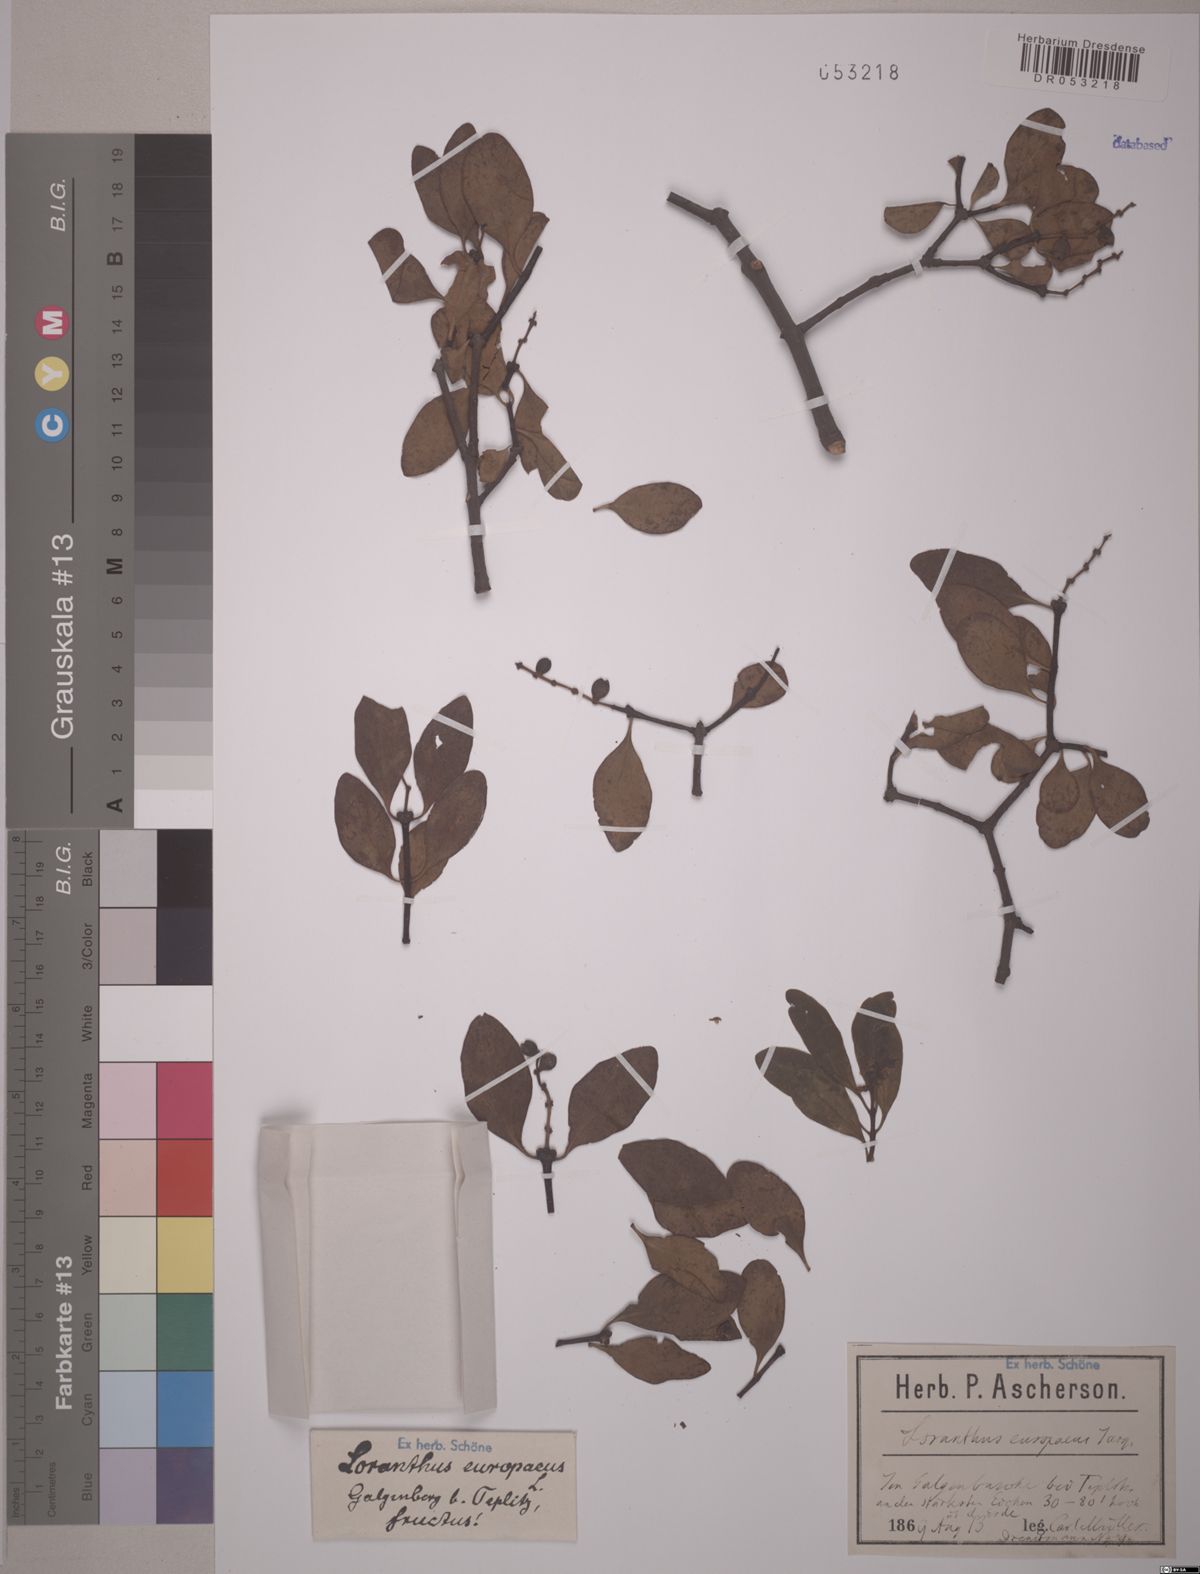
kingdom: Plantae
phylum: Tracheophyta
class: Magnoliopsida
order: Santalales
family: Loranthaceae
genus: Loranthus
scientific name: Loranthus europaeus
